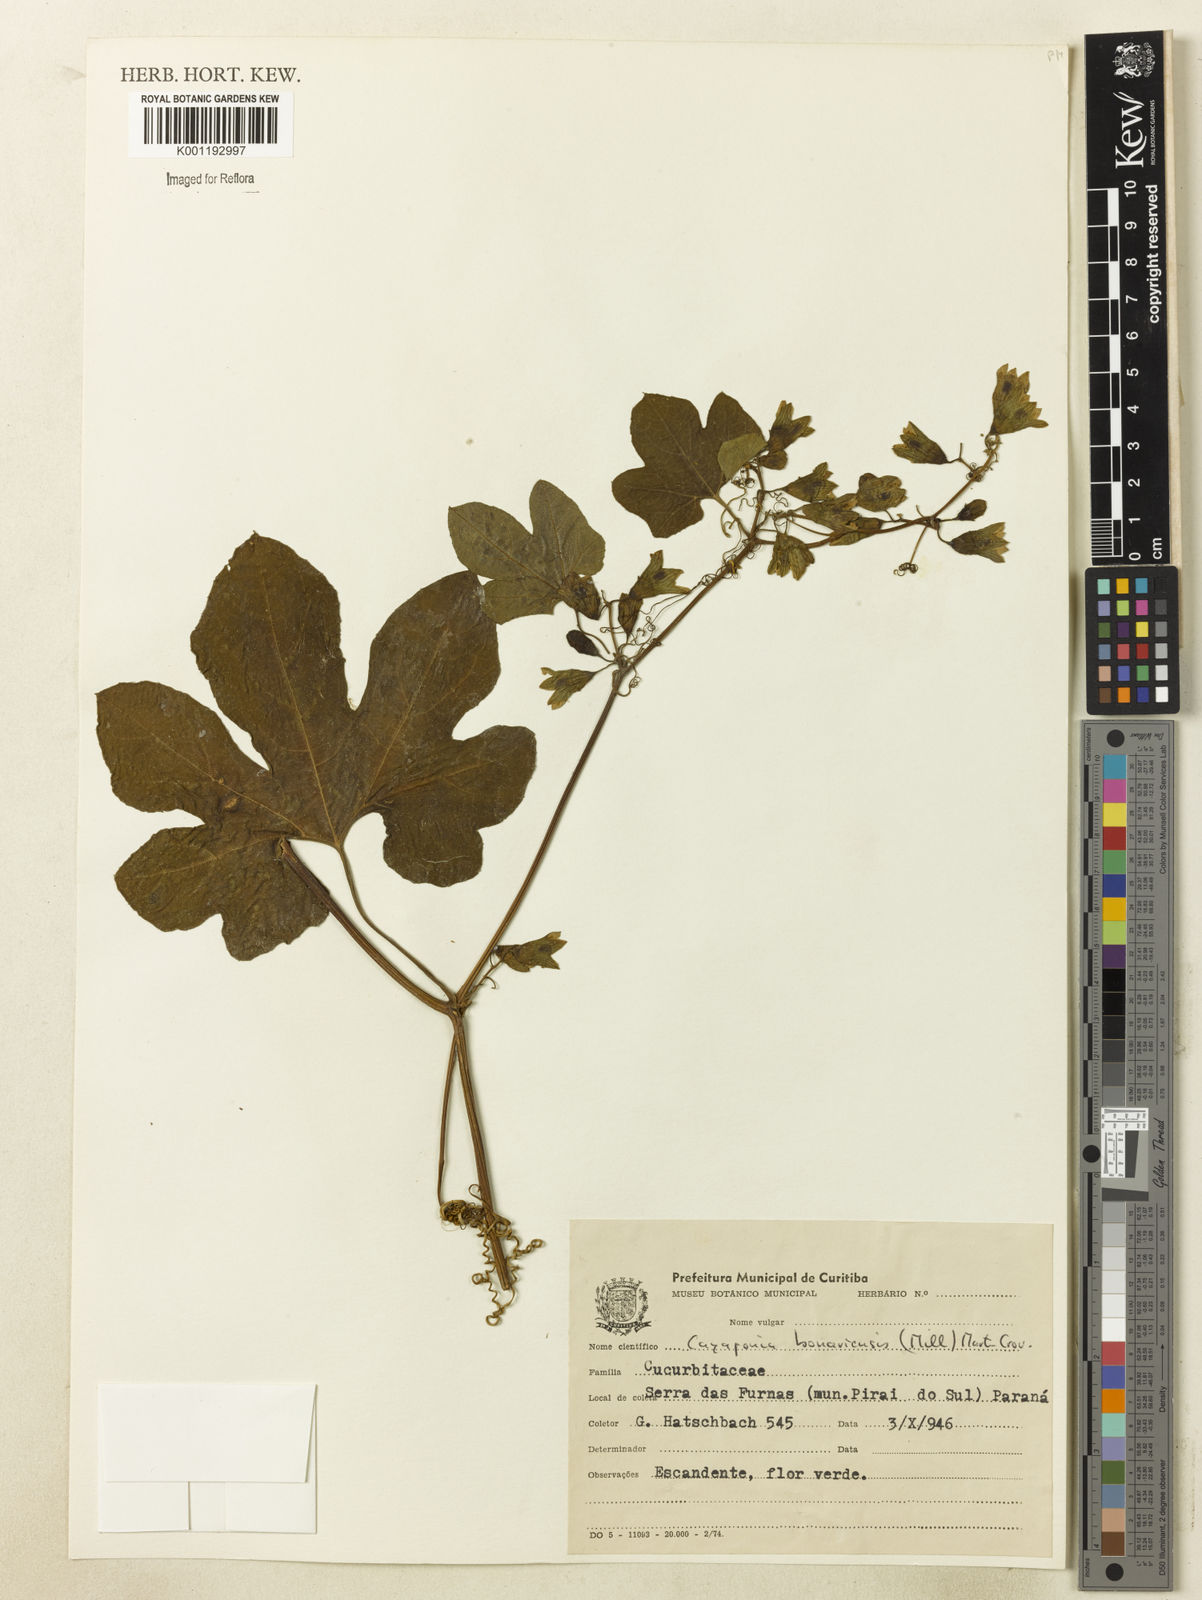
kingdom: Plantae
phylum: Tracheophyta
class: Magnoliopsida
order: Cucurbitales
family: Cucurbitaceae
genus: Cayaponia
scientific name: Cayaponia bonariensis
